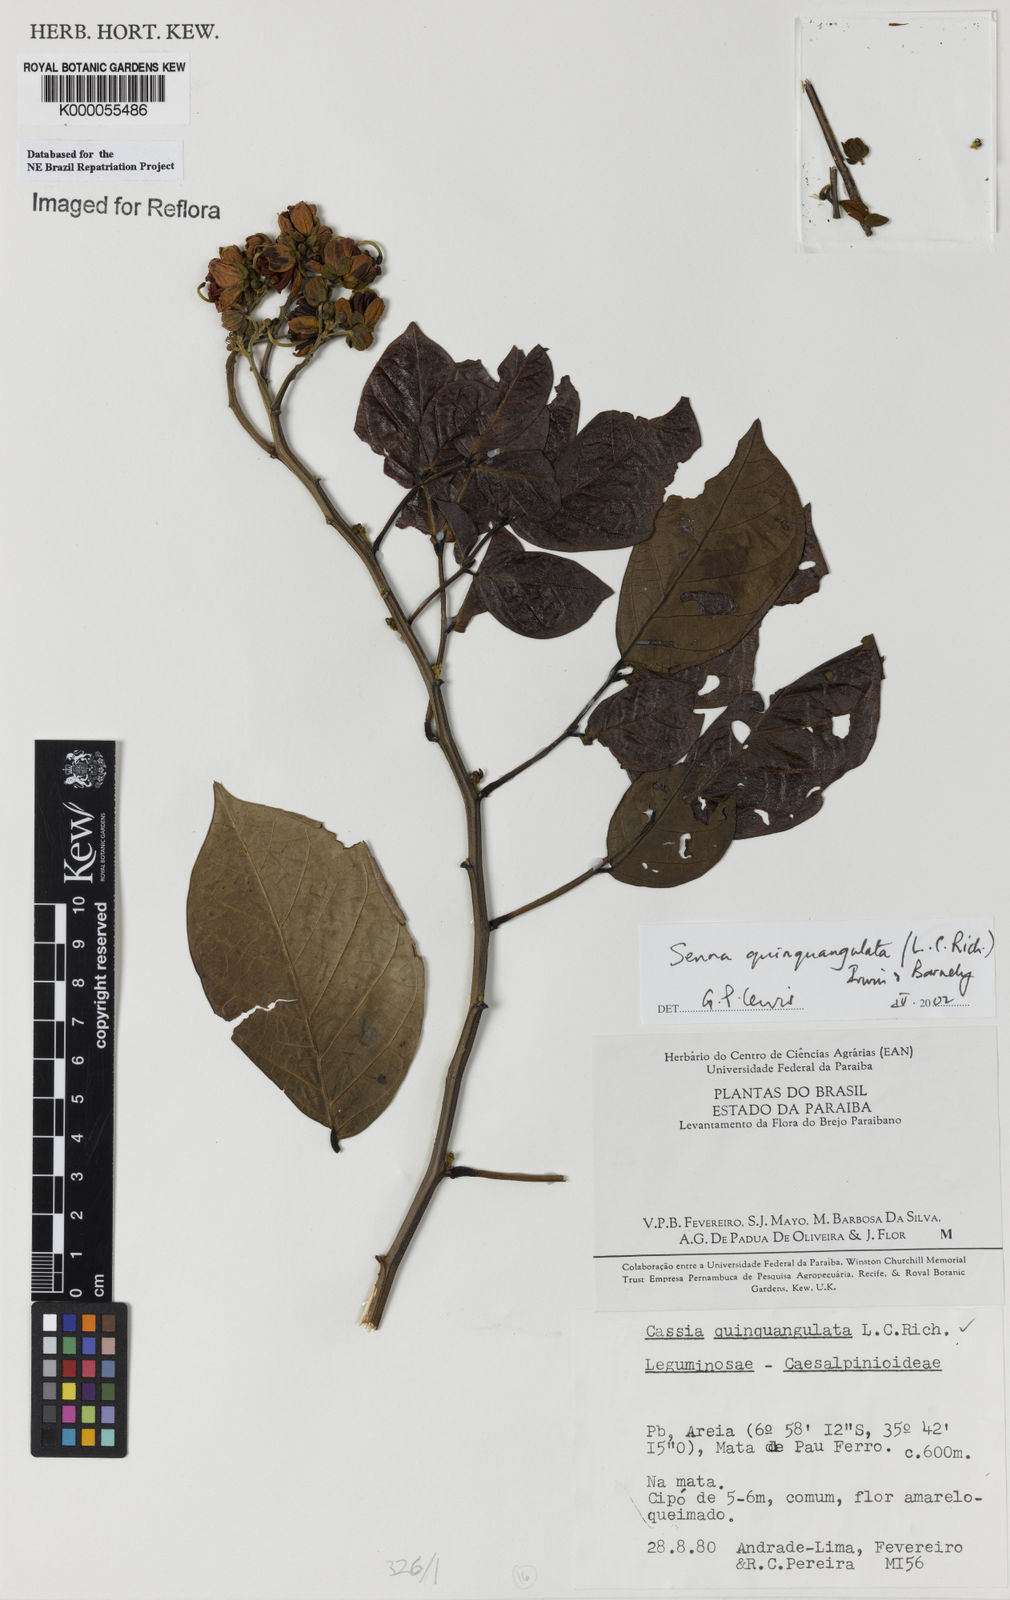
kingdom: Plantae
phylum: Tracheophyta
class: Magnoliopsida
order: Fabales
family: Fabaceae
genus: Senna
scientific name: Senna quinquangulata
